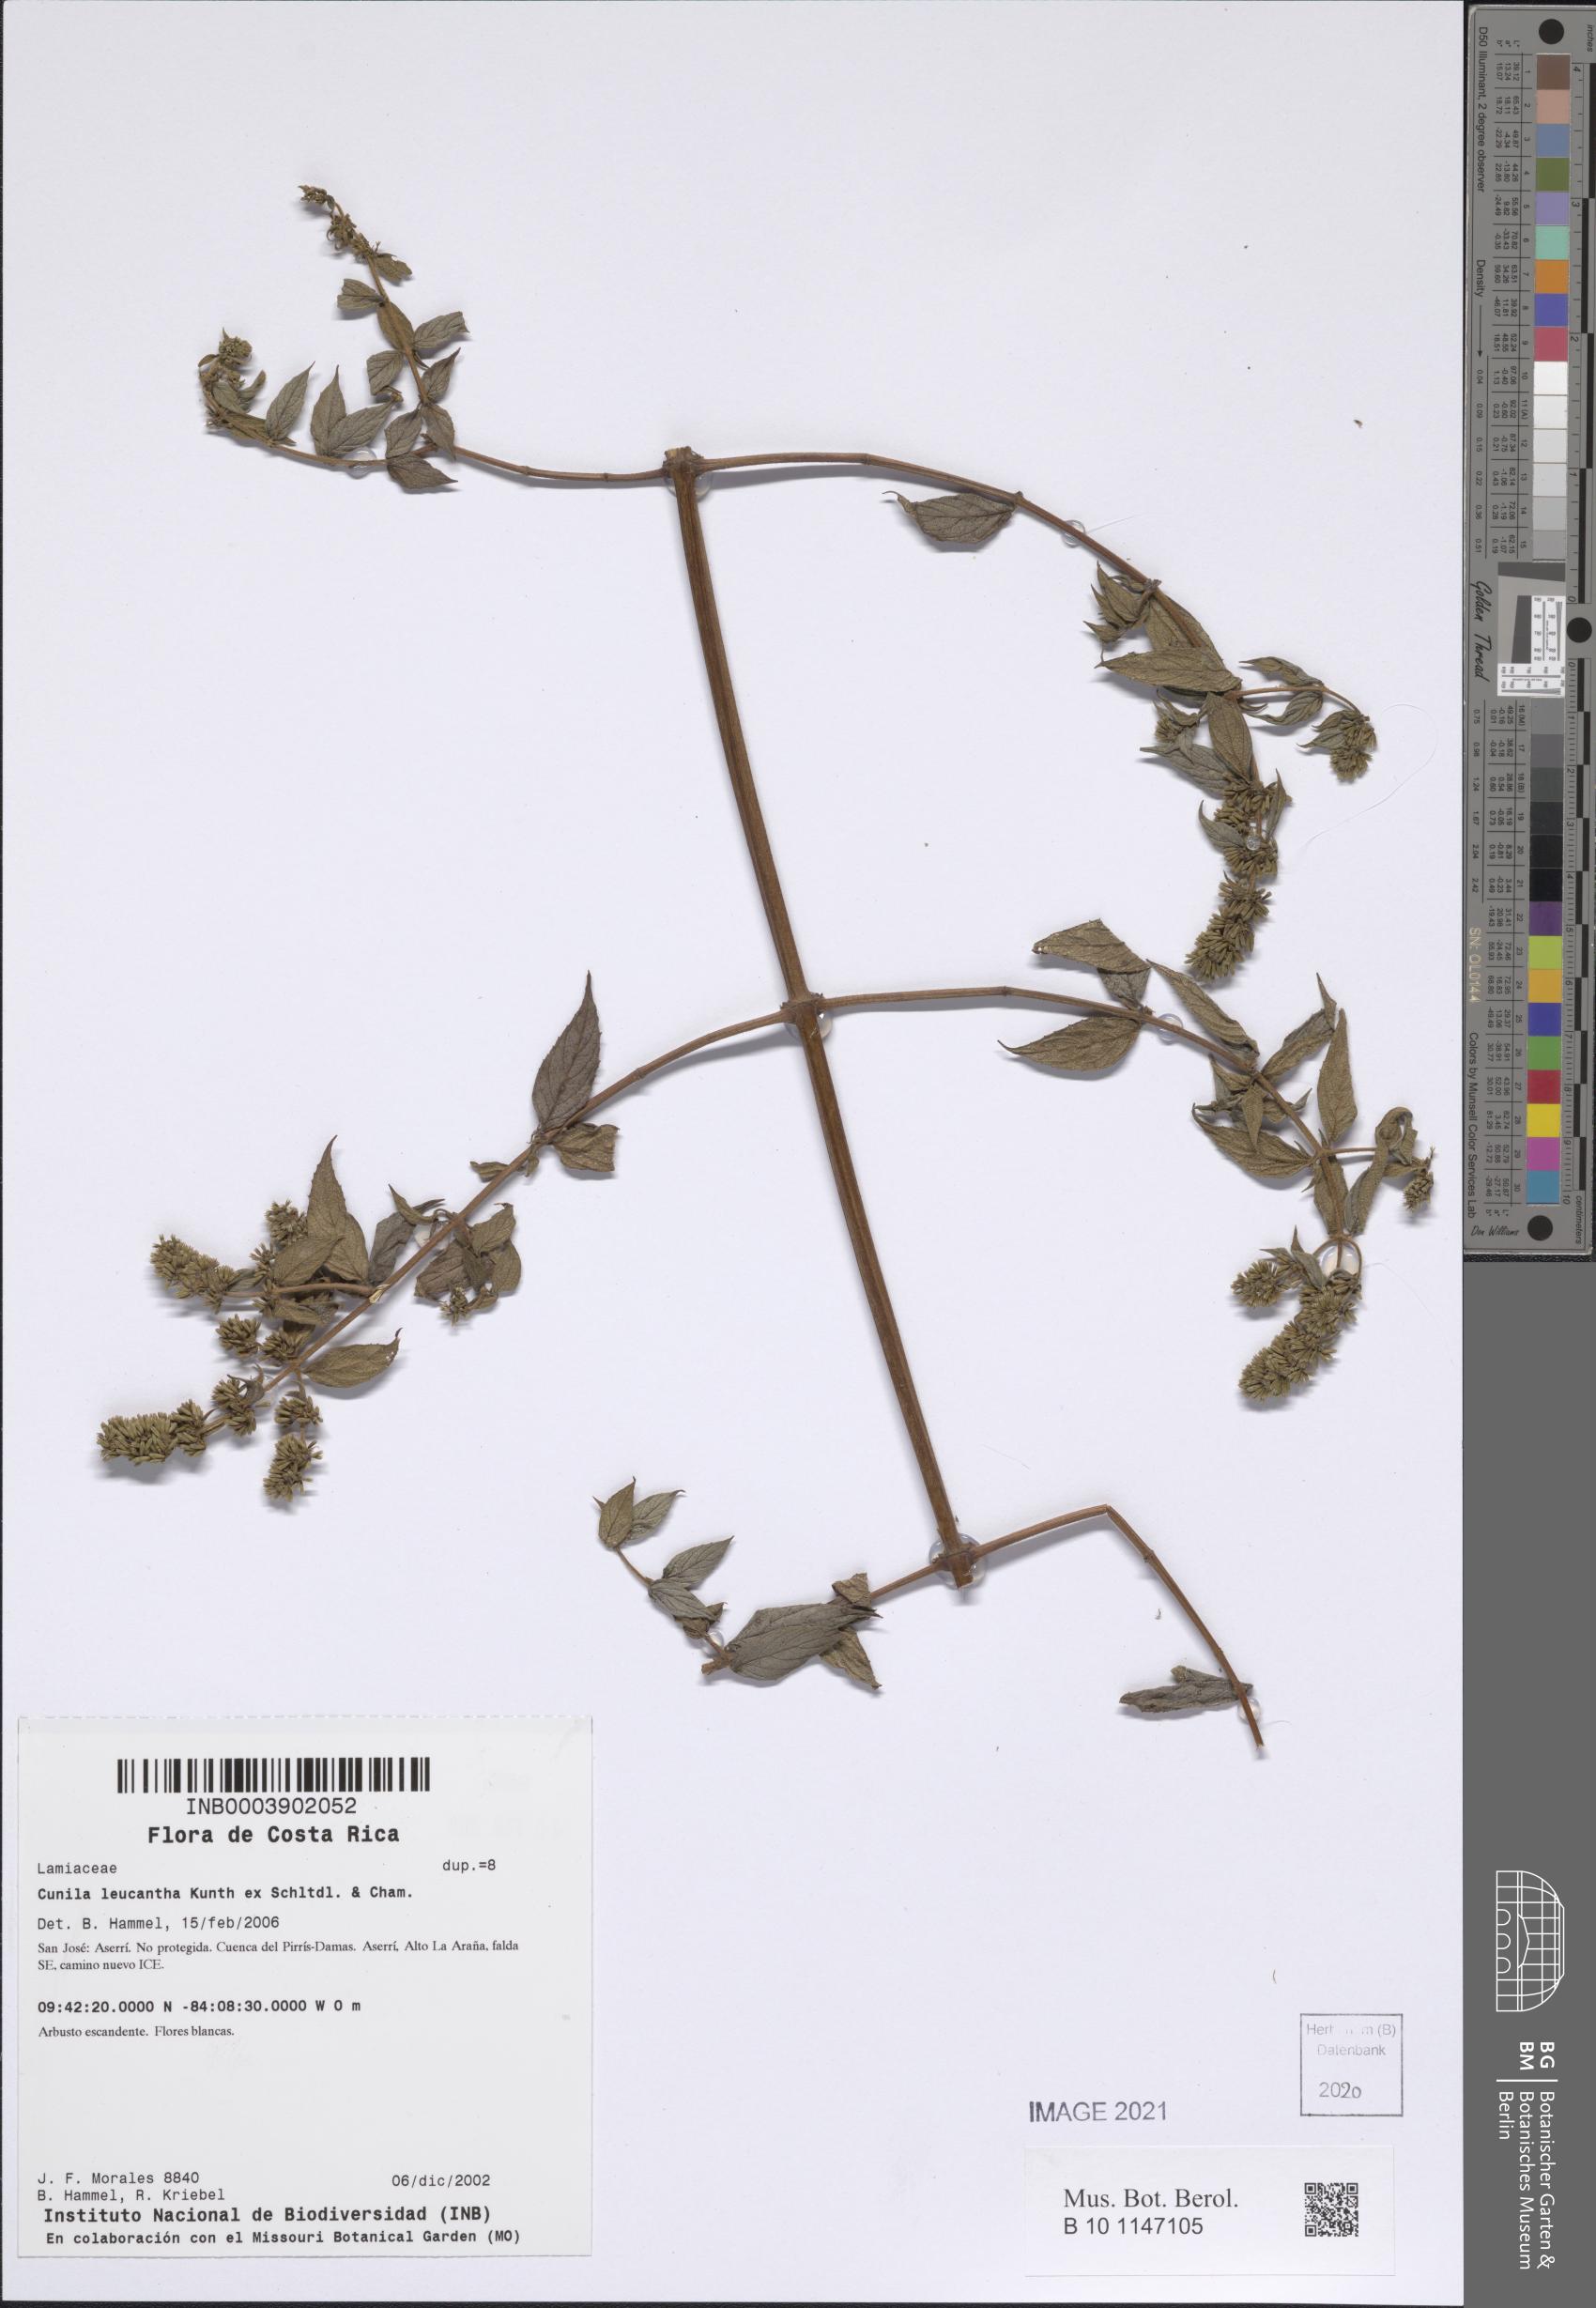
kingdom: Plantae
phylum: Tracheophyta
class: Magnoliopsida
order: Lamiales
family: Lamiaceae
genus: Cunila
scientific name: Cunila leucantha
